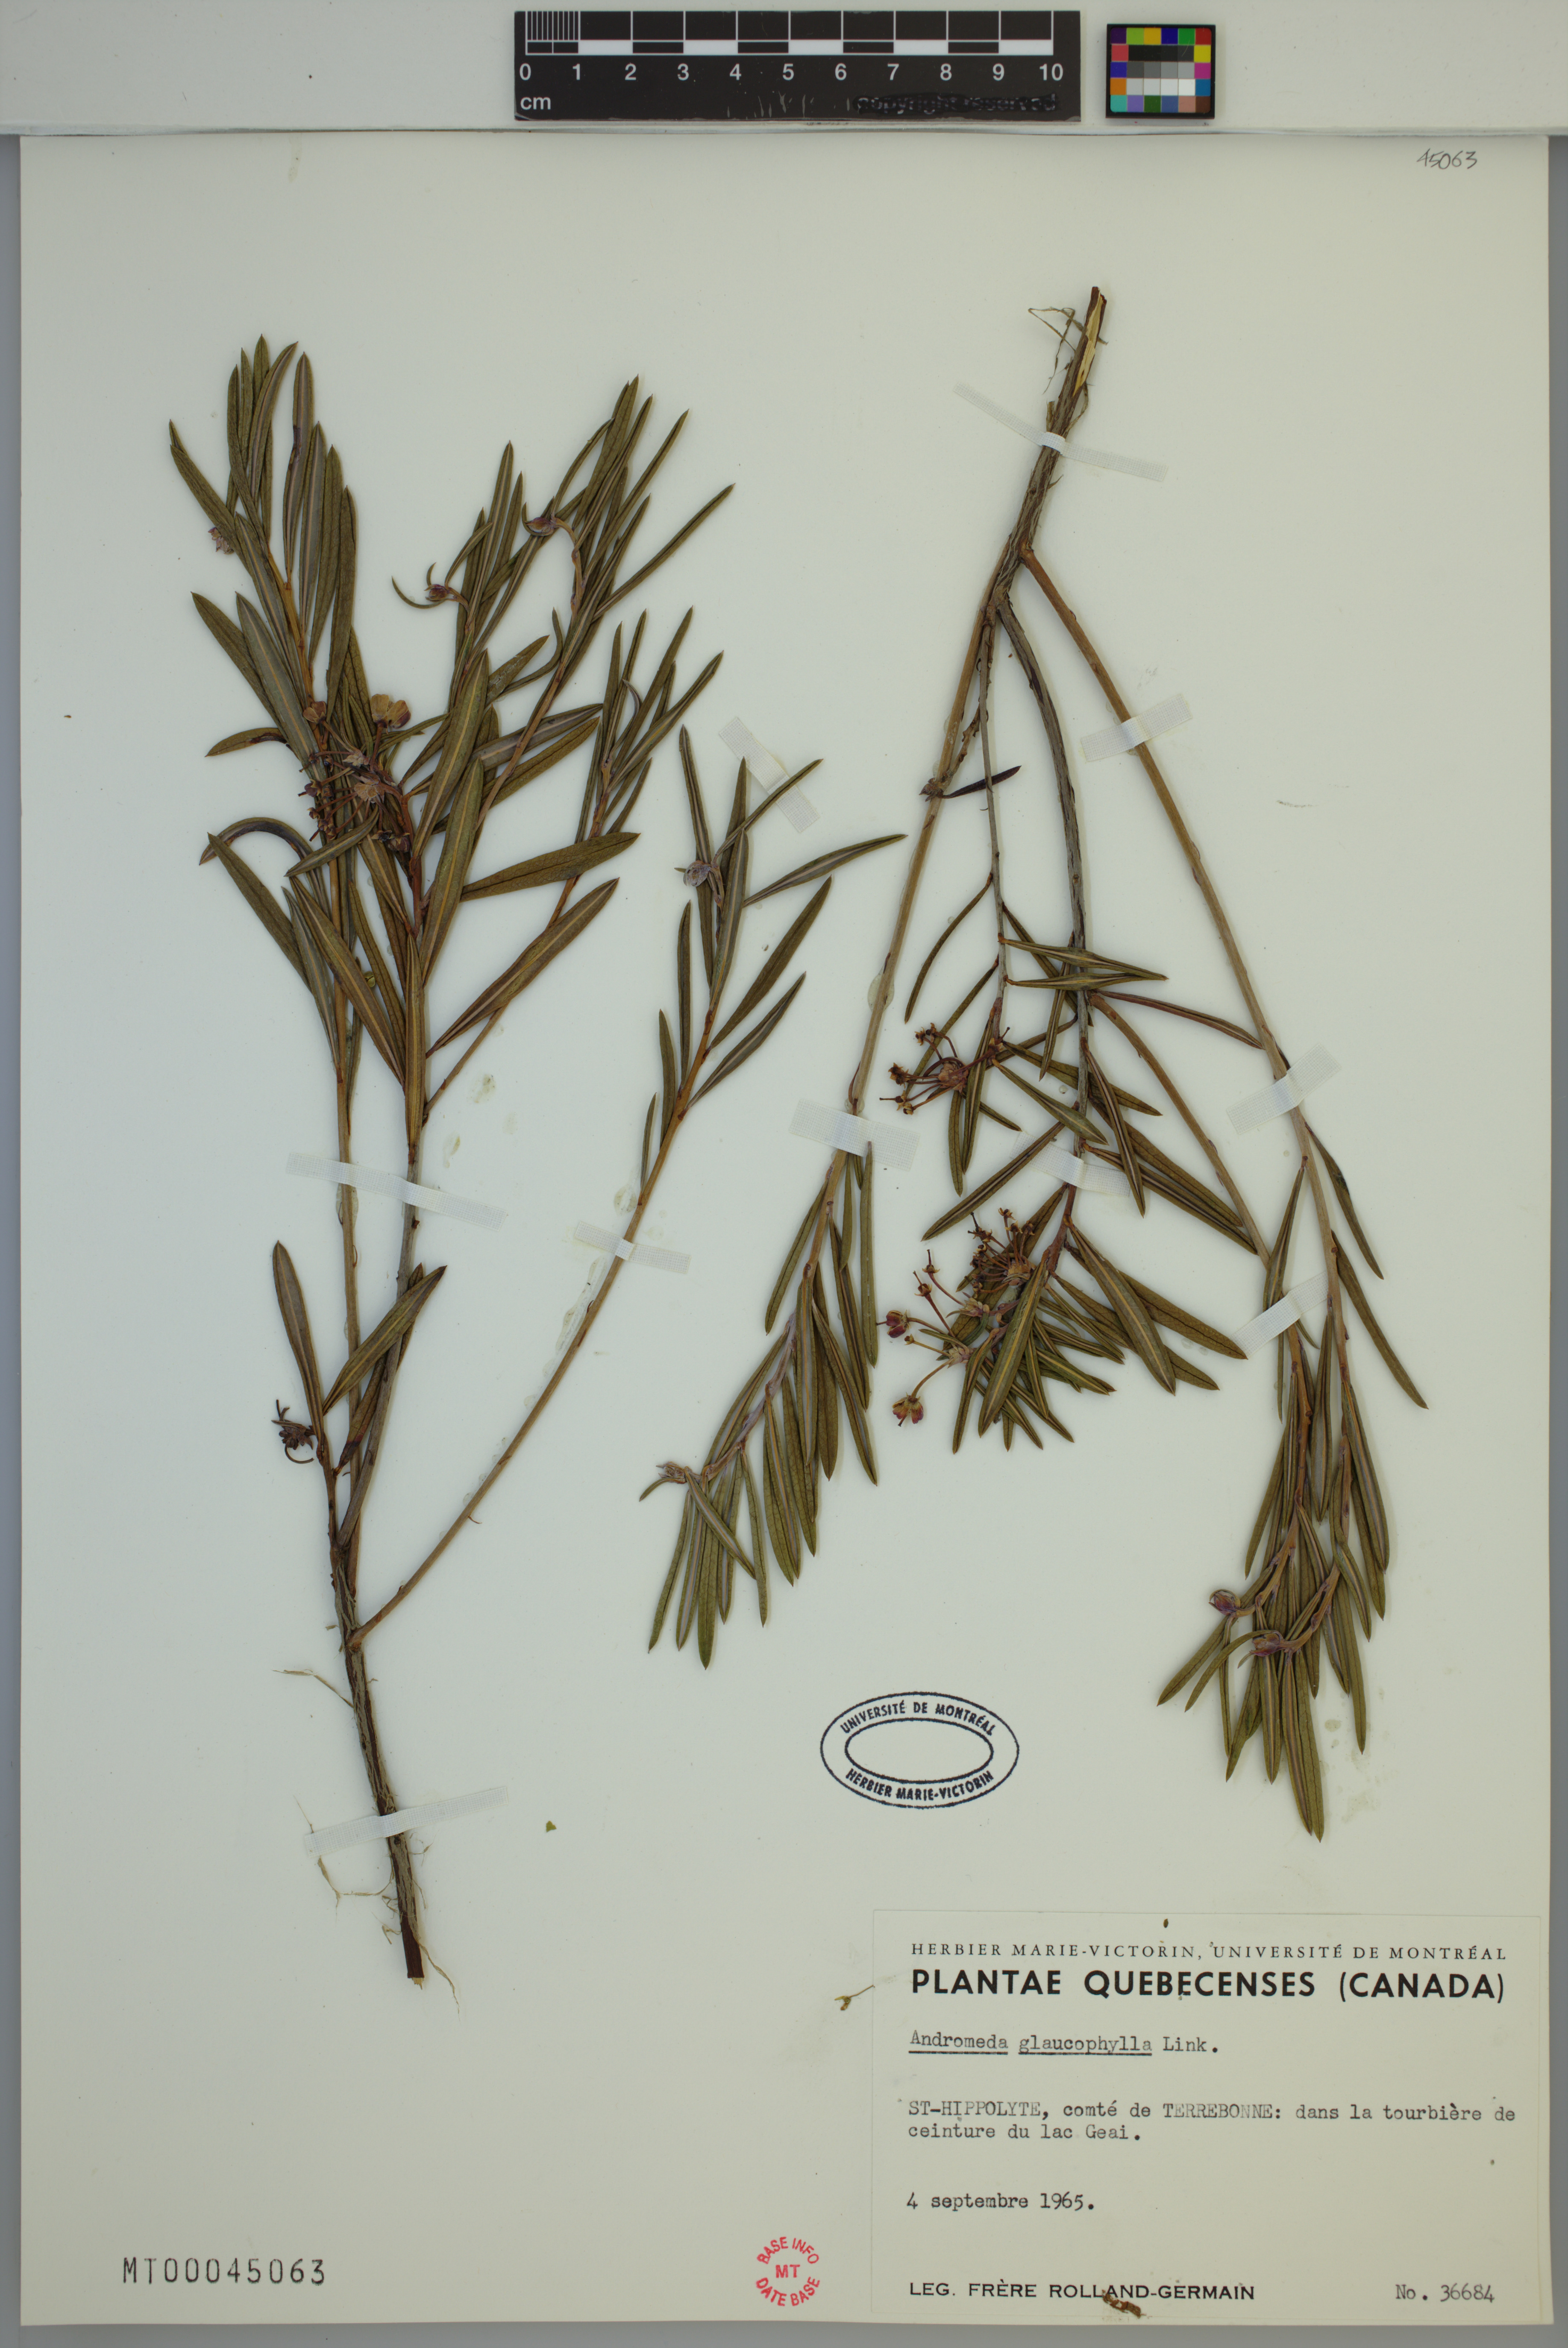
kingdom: Plantae
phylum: Tracheophyta
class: Magnoliopsida
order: Ericales
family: Ericaceae
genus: Andromeda
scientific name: Andromeda polifolia
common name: Bog-rosemary
